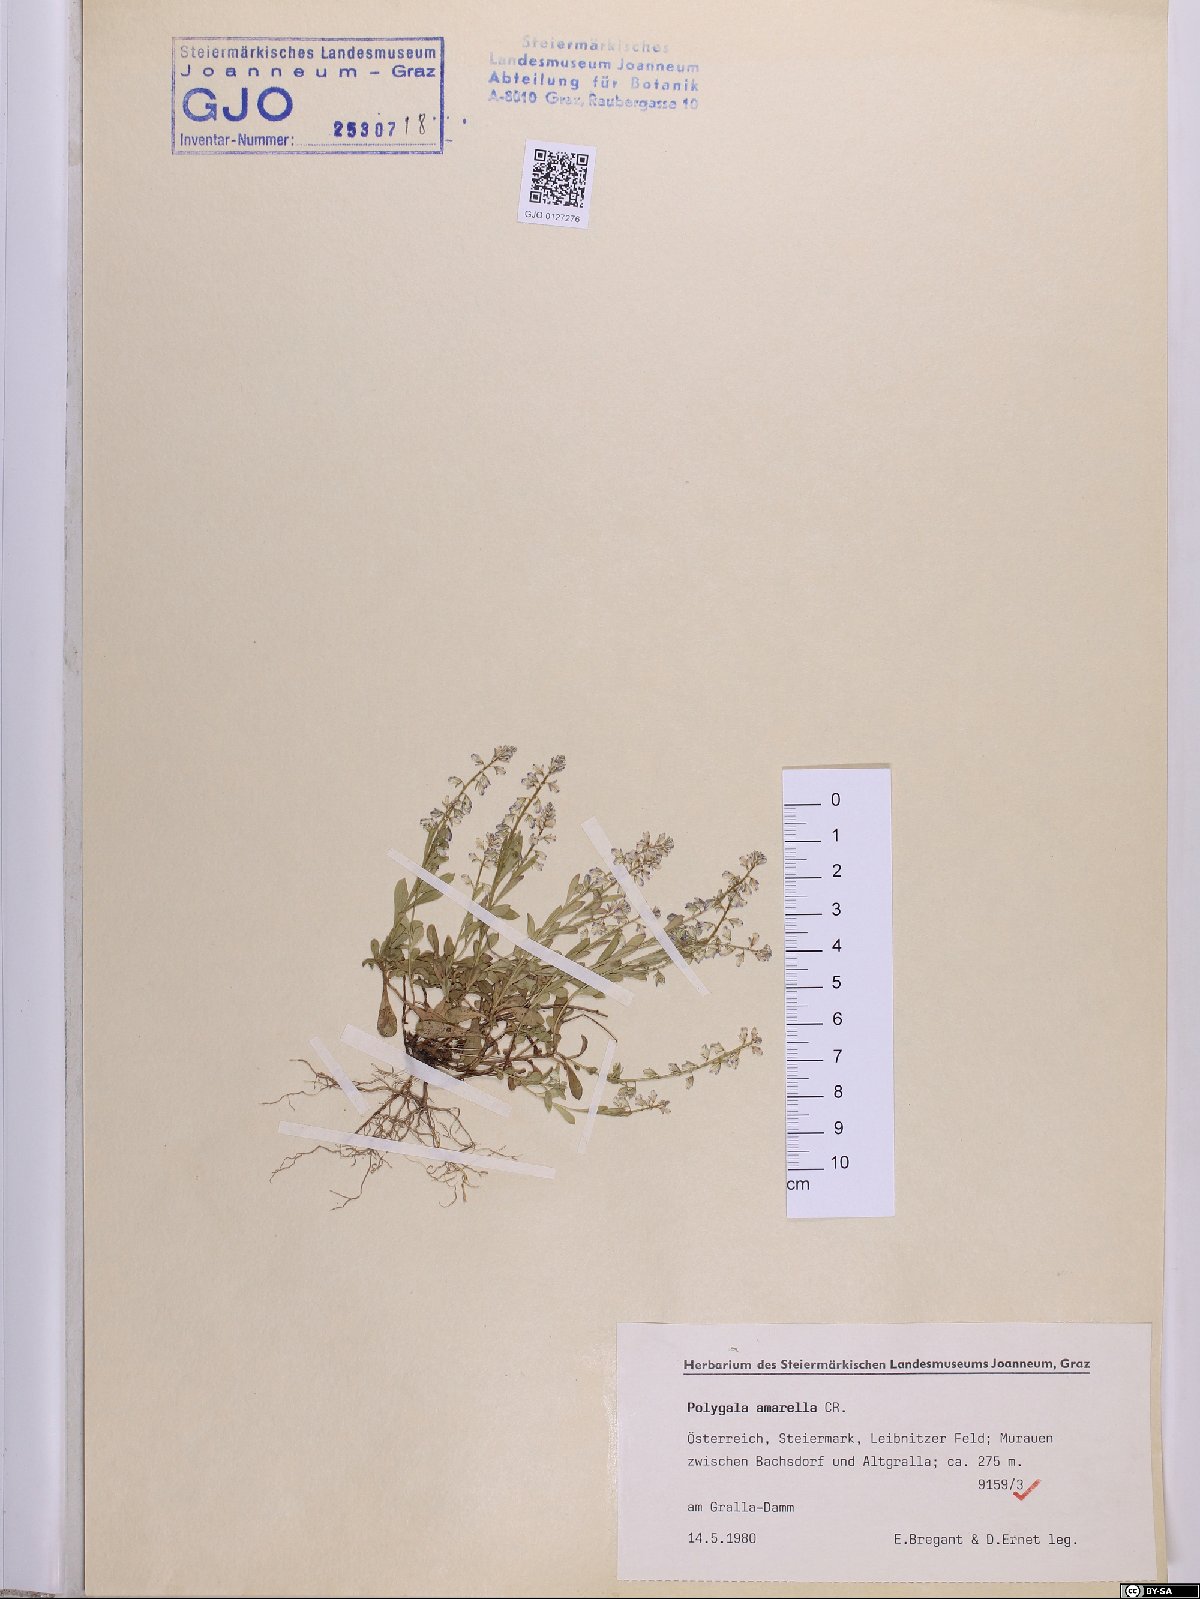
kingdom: Plantae
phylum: Tracheophyta
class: Magnoliopsida
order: Fabales
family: Polygalaceae
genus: Polygala
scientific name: Polygala amarella
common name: Dwarf milkwort
